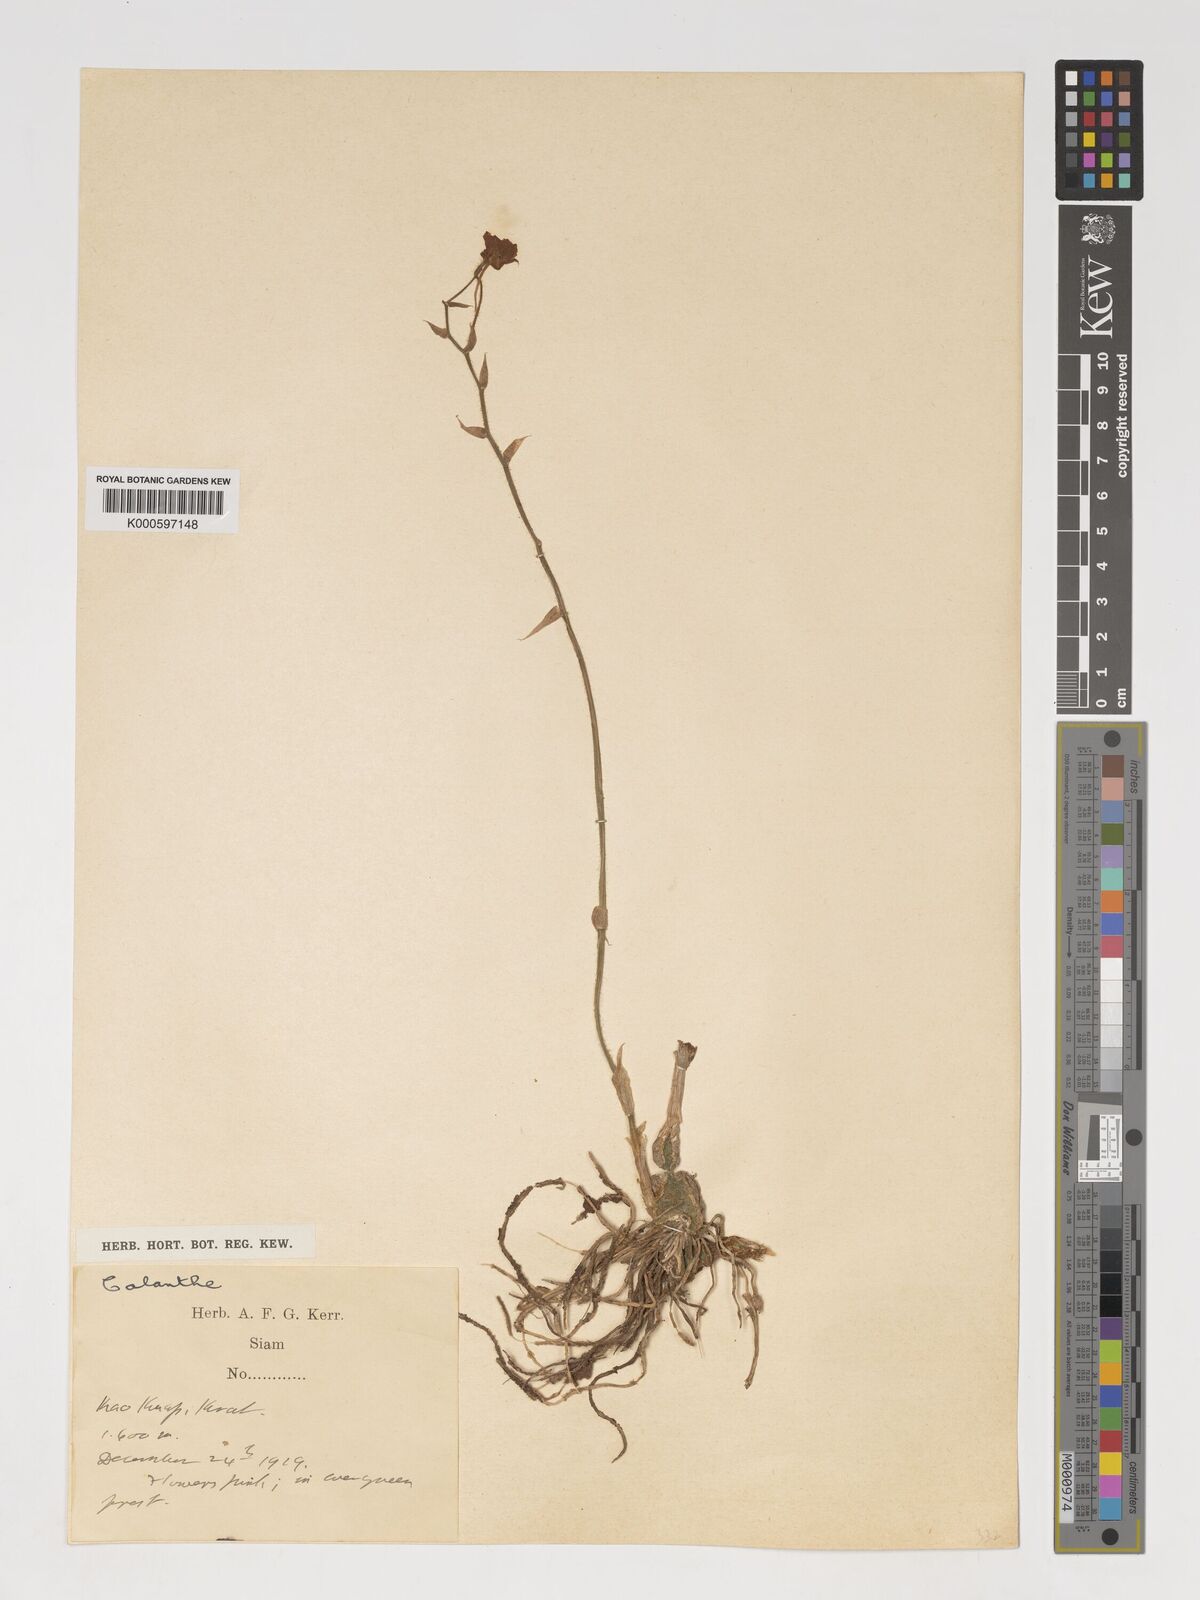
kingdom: Plantae
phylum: Tracheophyta
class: Liliopsida
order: Asparagales
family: Orchidaceae
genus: Calanthe
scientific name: Calanthe
